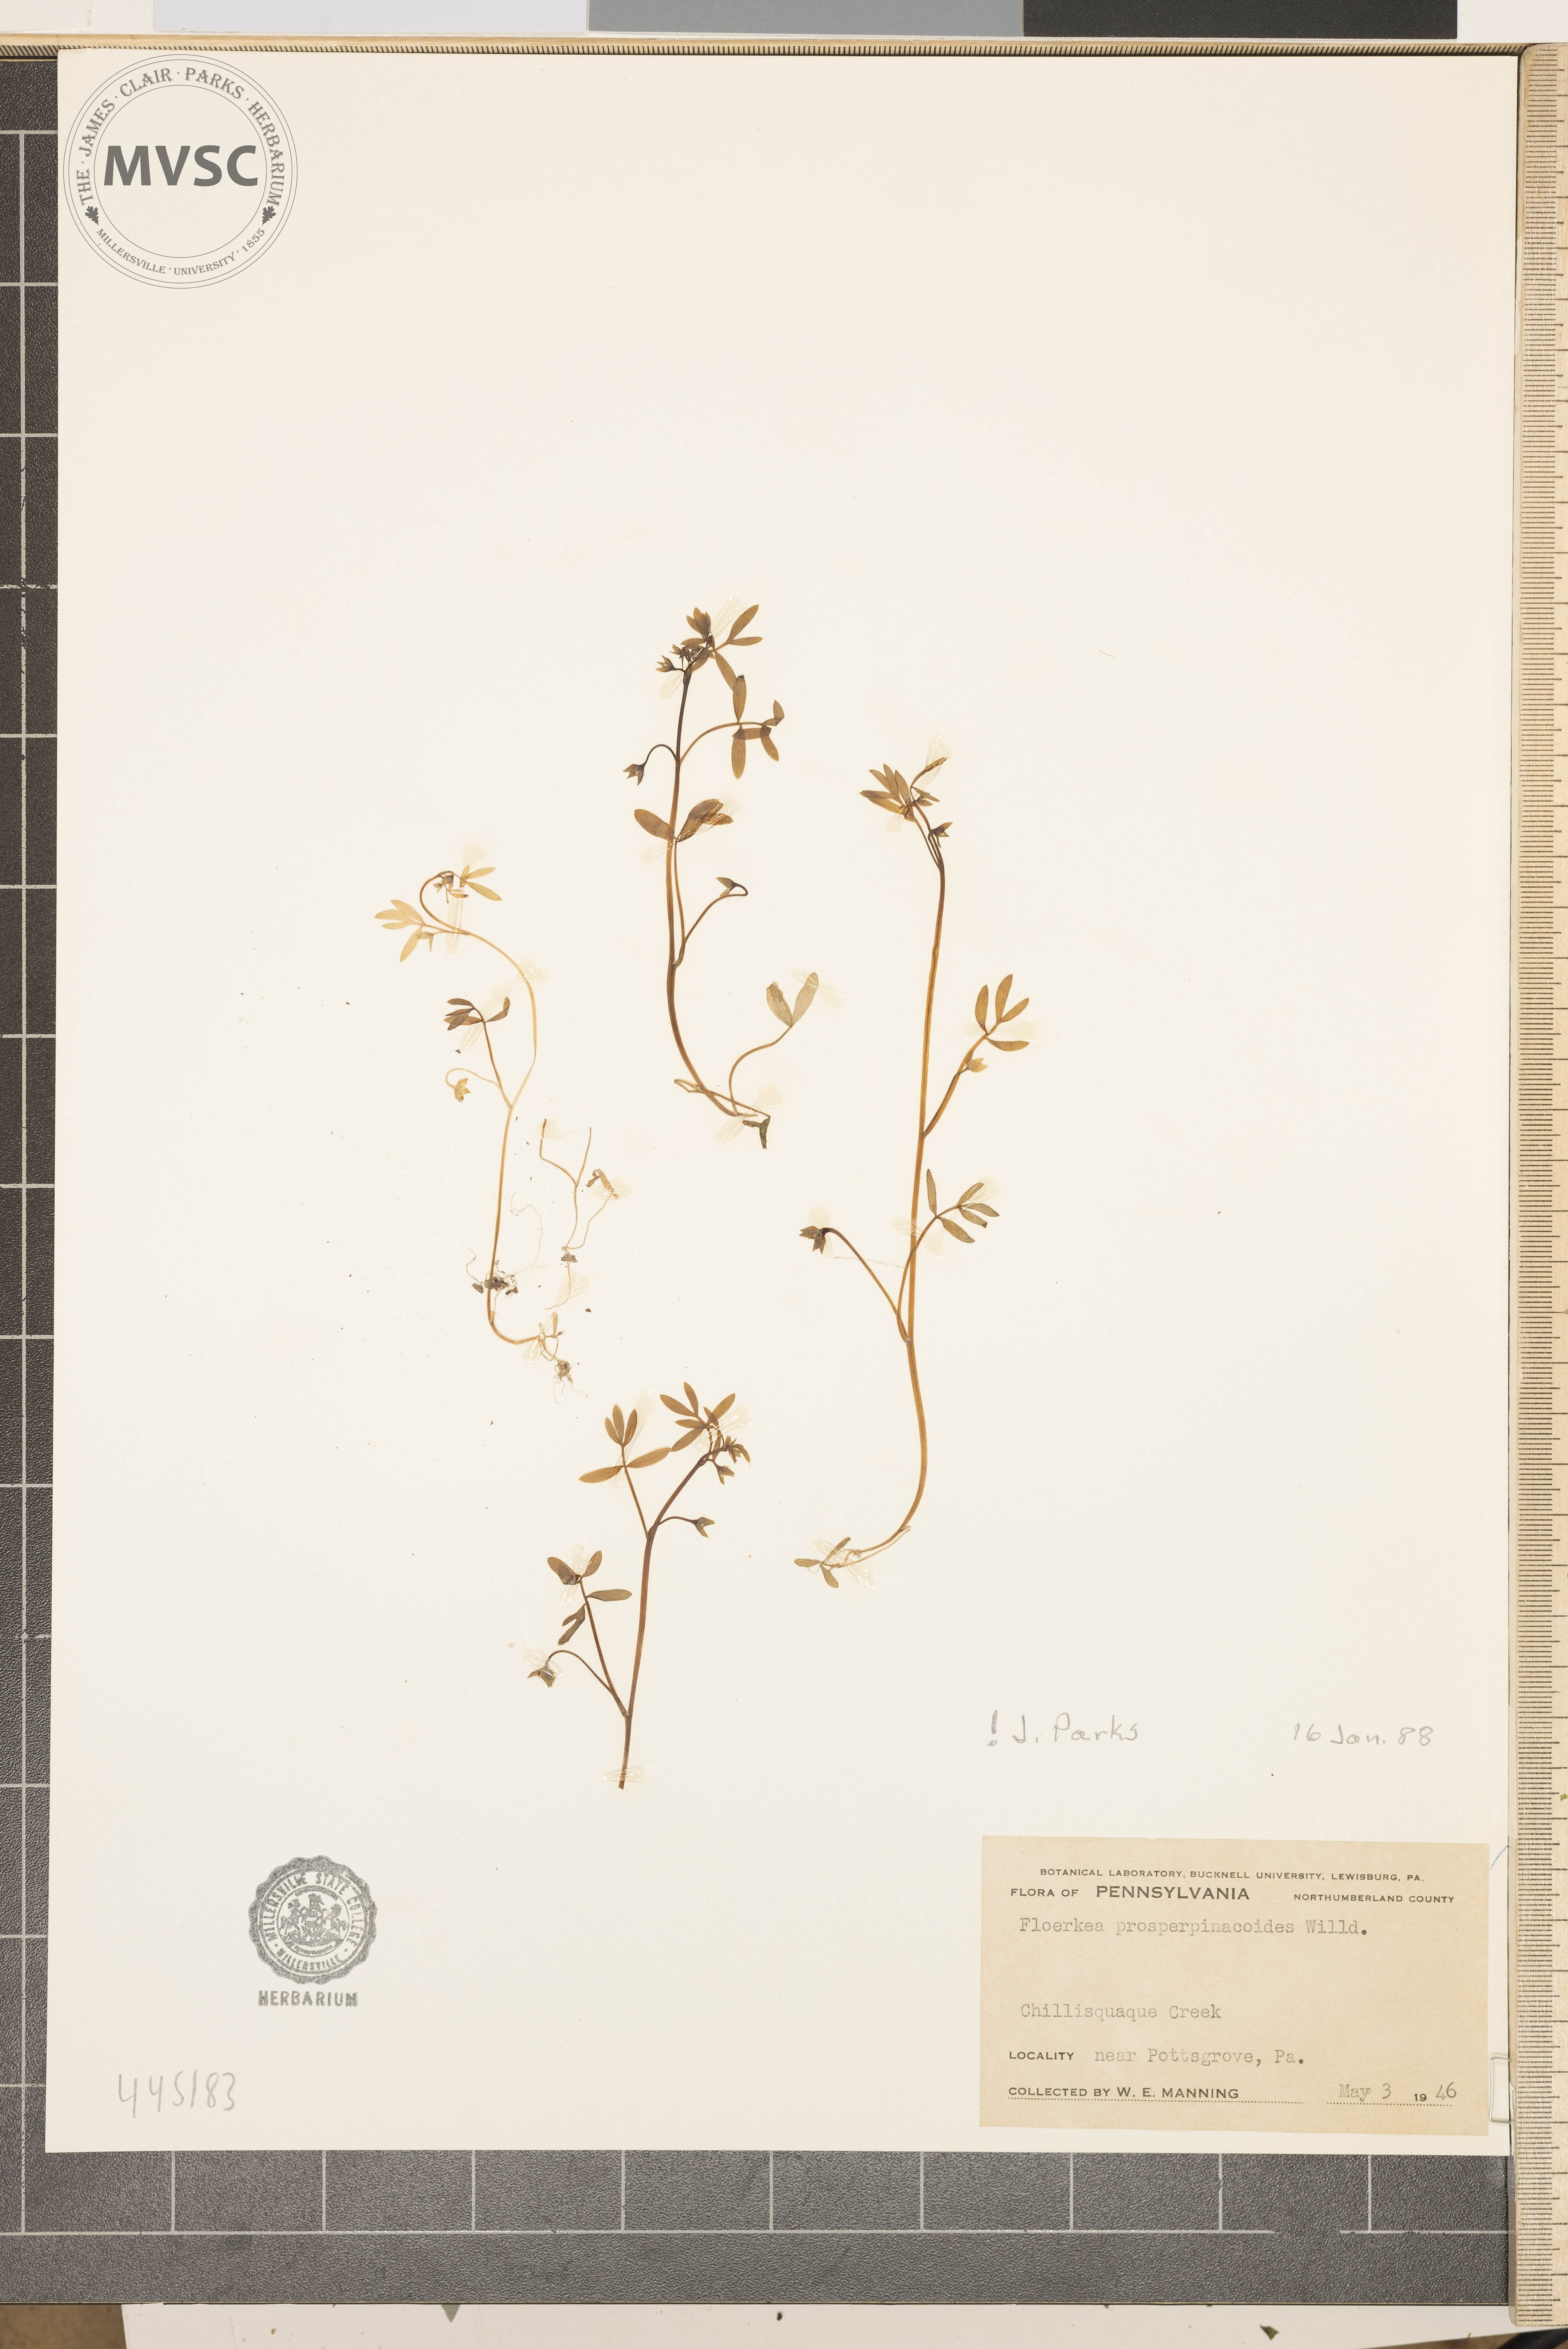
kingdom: Plantae
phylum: Tracheophyta
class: Magnoliopsida
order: Brassicales
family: Limnanthaceae
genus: Floerkea
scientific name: Floerkea proserpinacoides
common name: False mermaid
